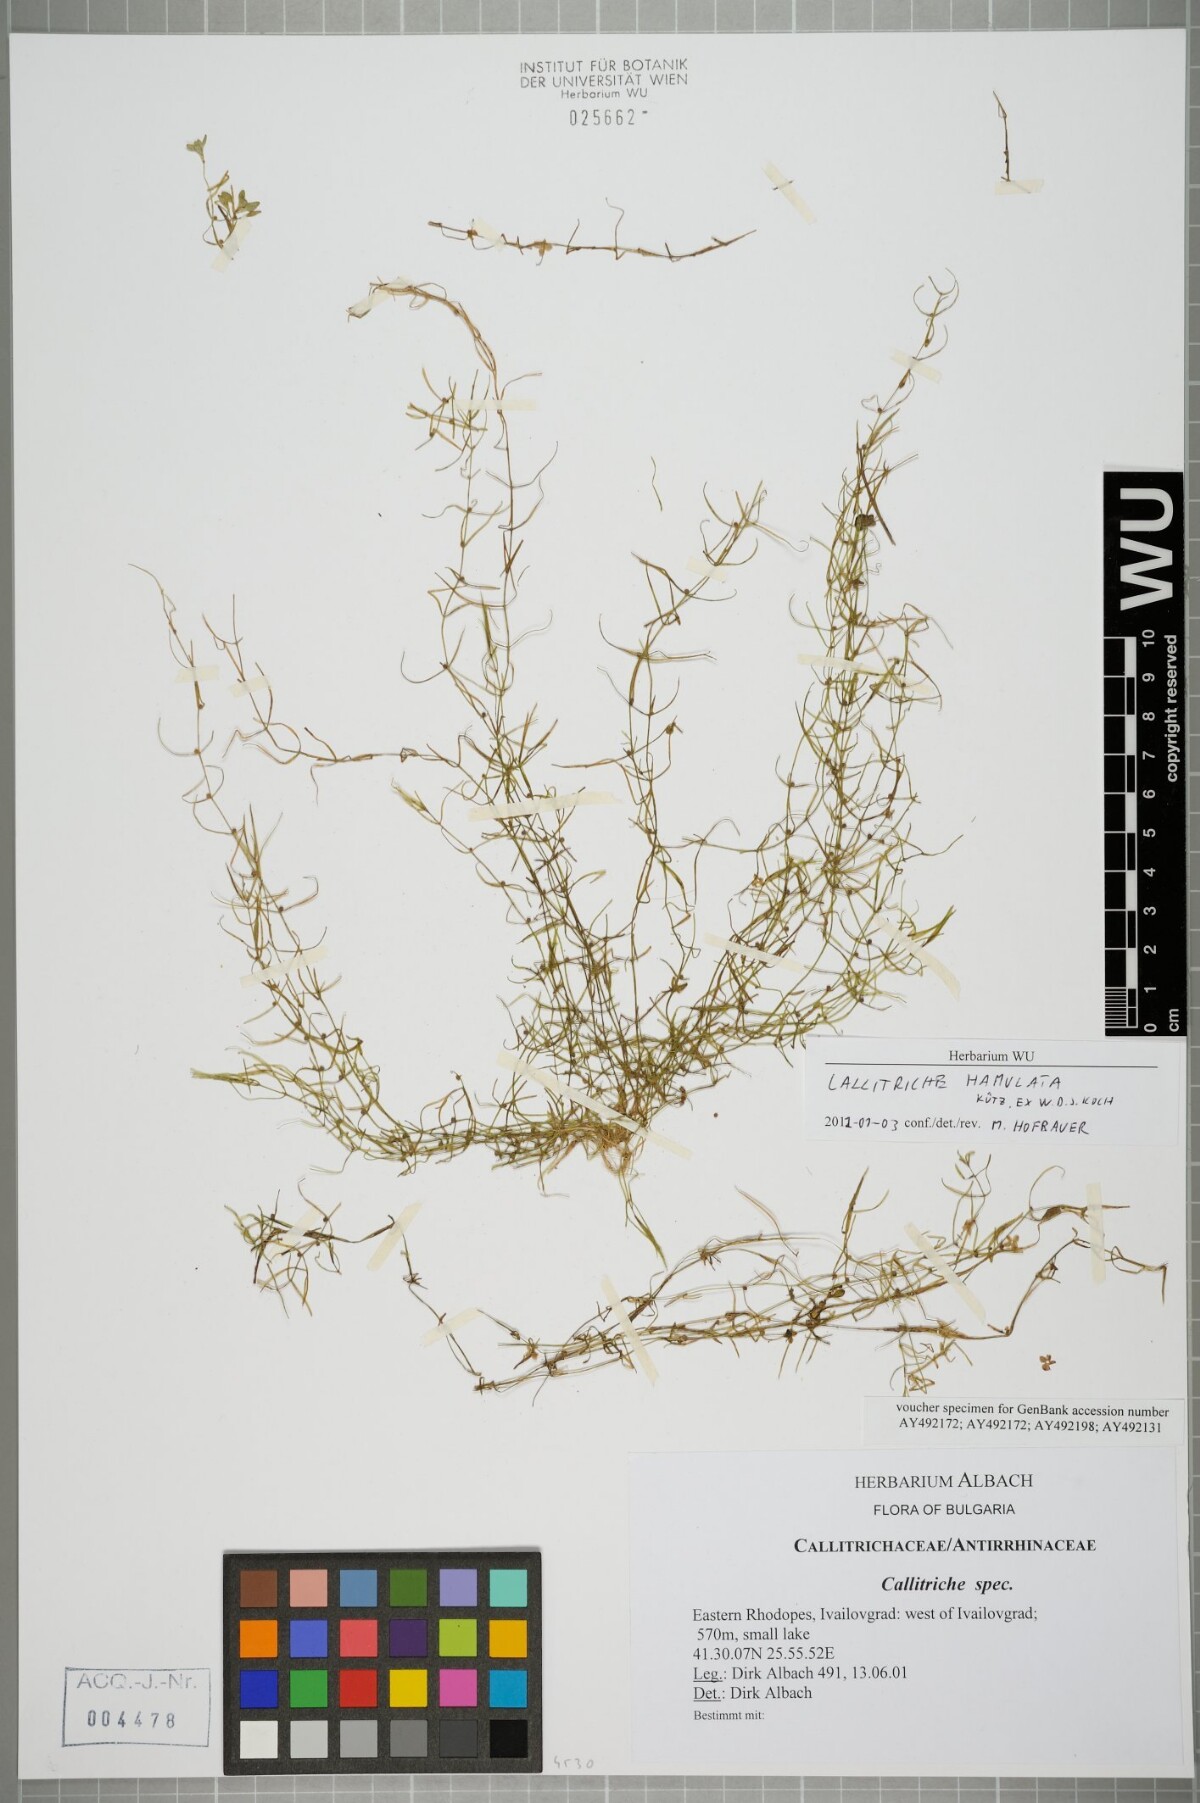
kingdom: Plantae
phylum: Tracheophyta
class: Magnoliopsida
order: Lamiales
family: Plantaginaceae
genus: Callitriche
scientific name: Callitriche hamulata
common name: Intermediate water-starwort
